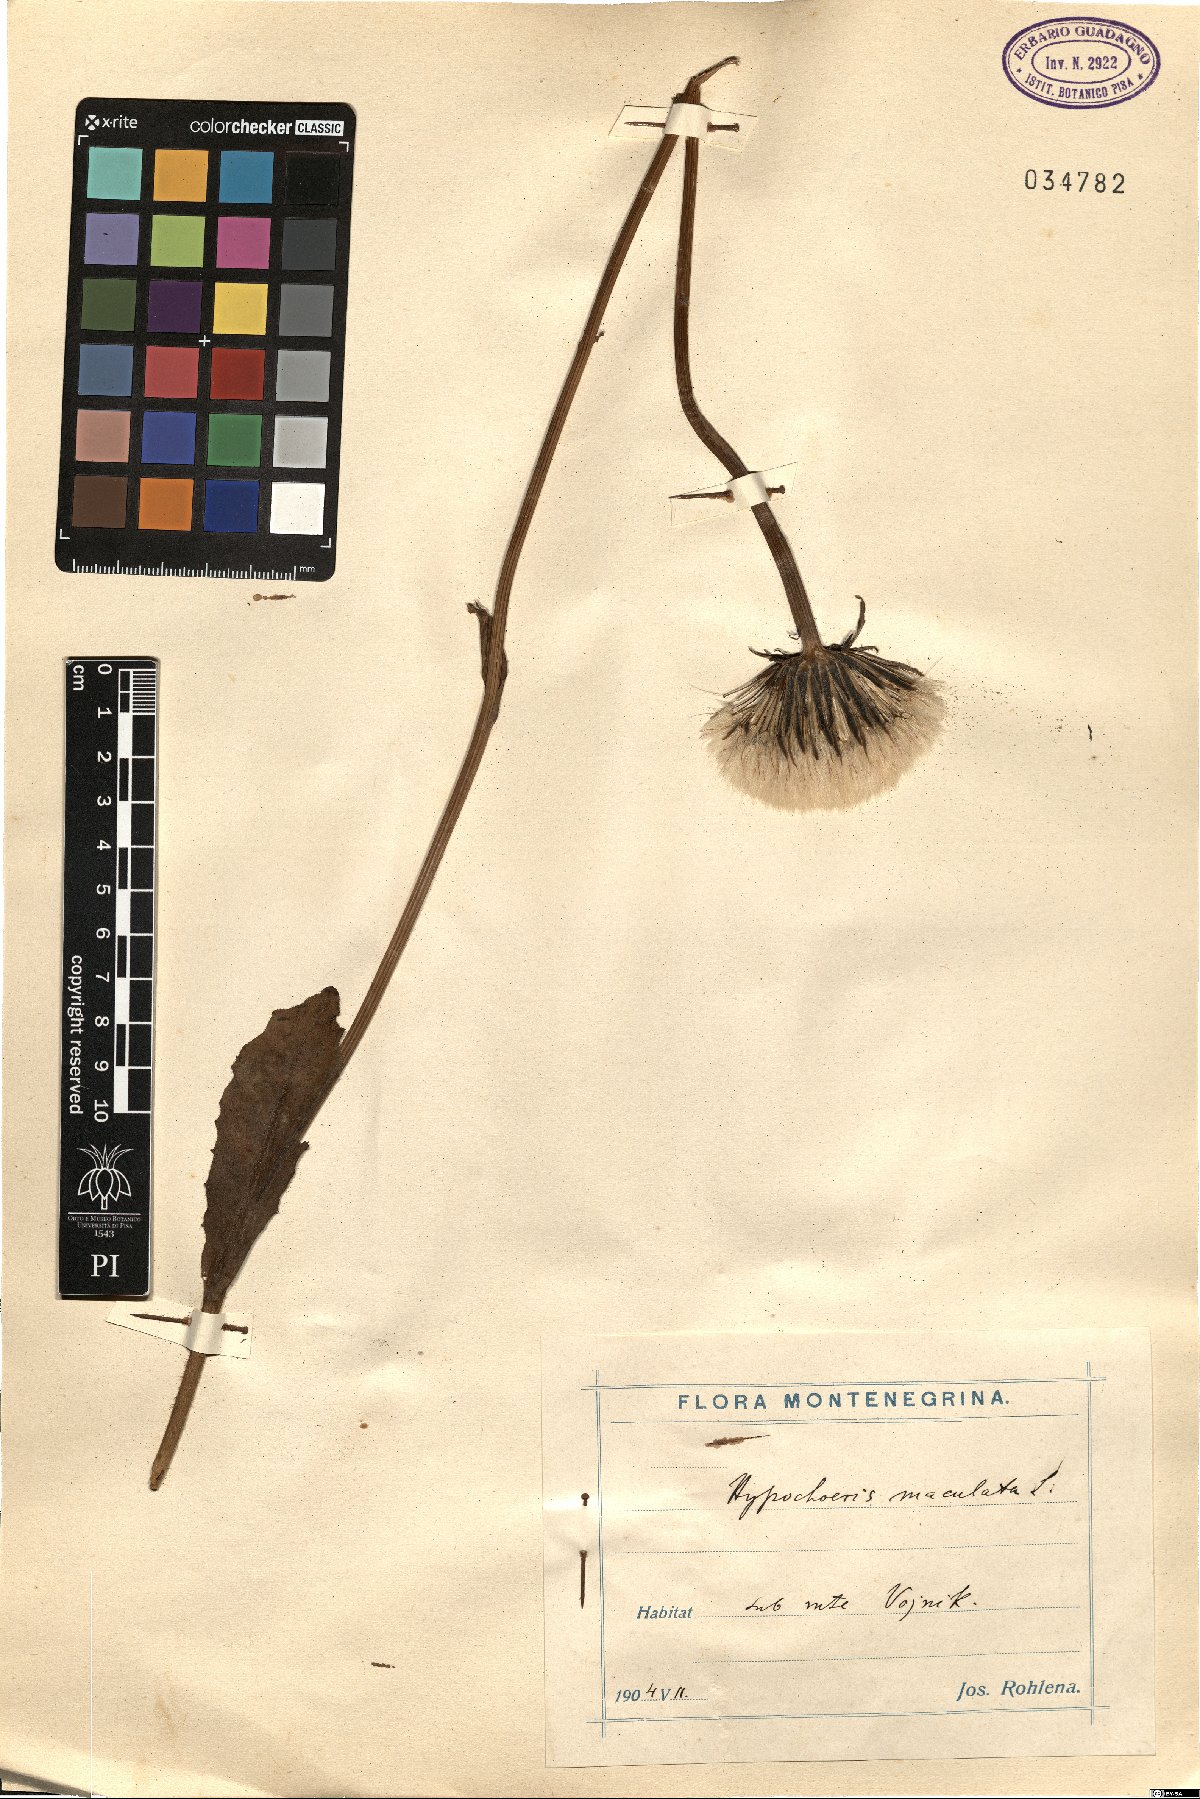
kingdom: Plantae
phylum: Tracheophyta
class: Magnoliopsida
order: Asterales
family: Asteraceae
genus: Trommsdorffia
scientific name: Trommsdorffia maculata
